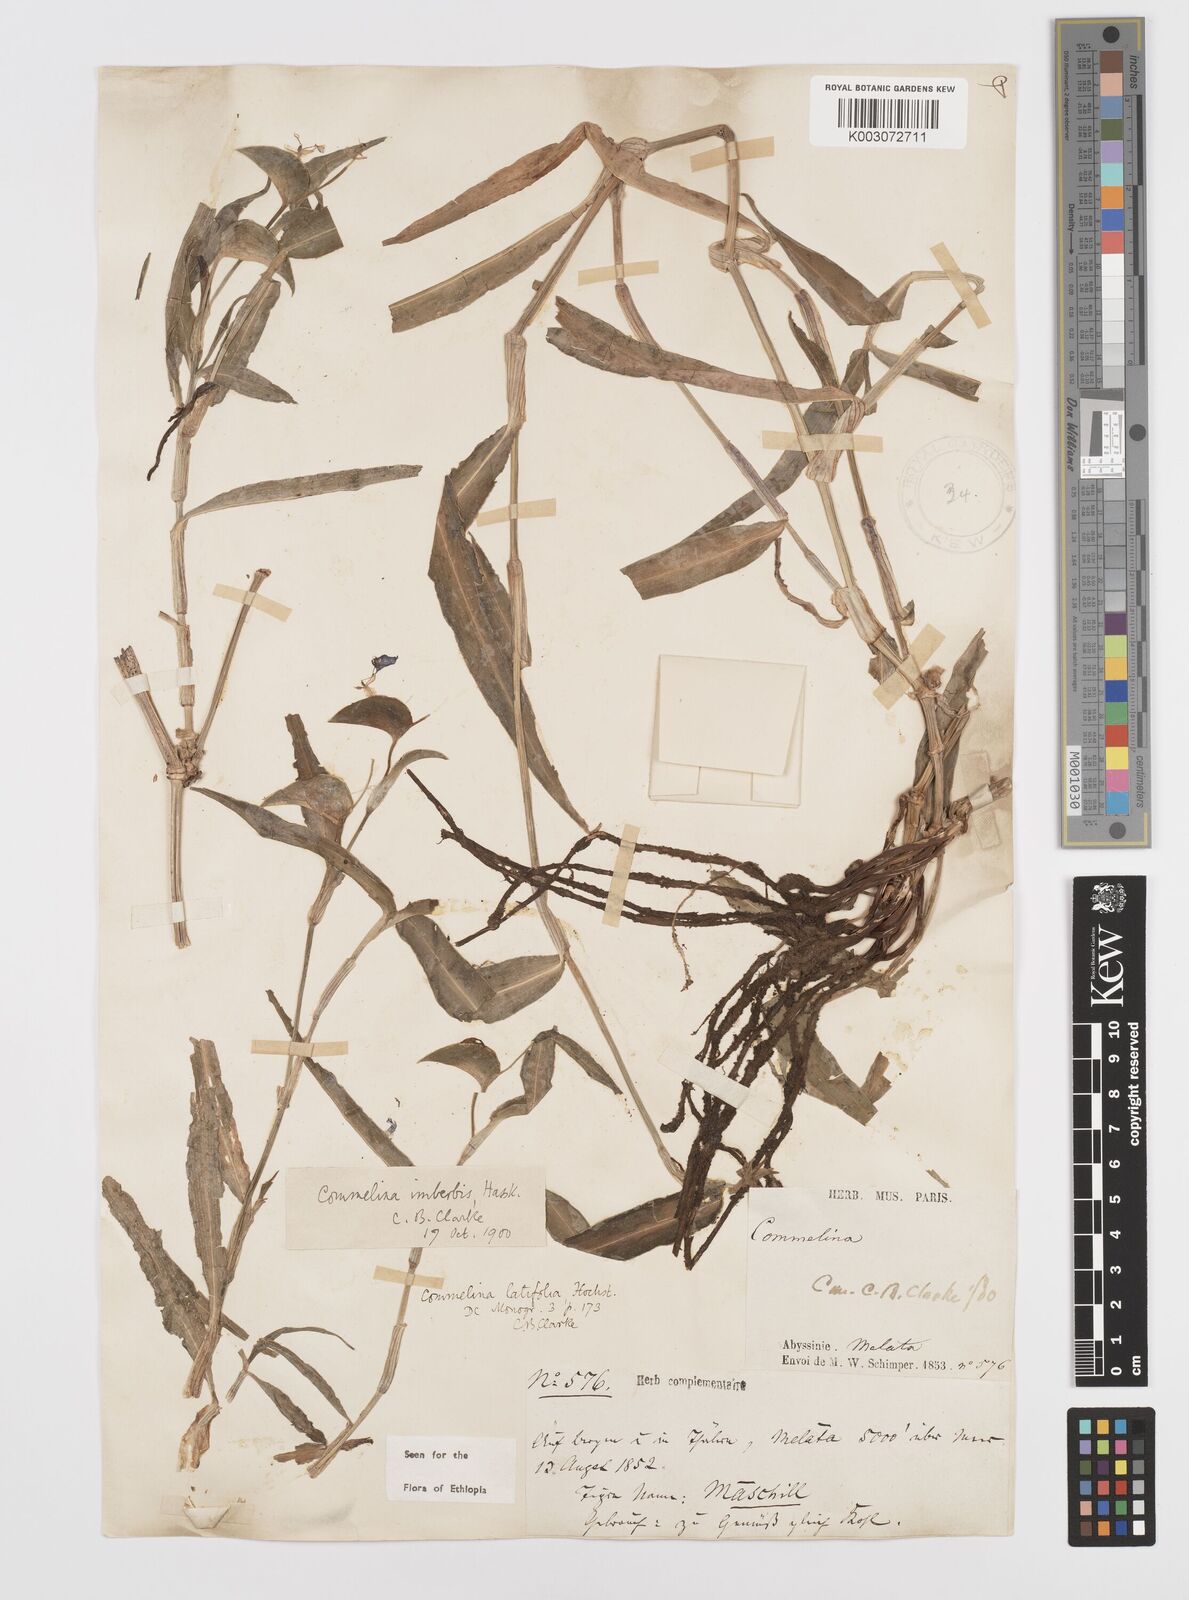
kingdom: Plantae
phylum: Tracheophyta
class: Liliopsida
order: Commelinales
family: Commelinaceae
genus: Commelina
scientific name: Commelina imberbis
